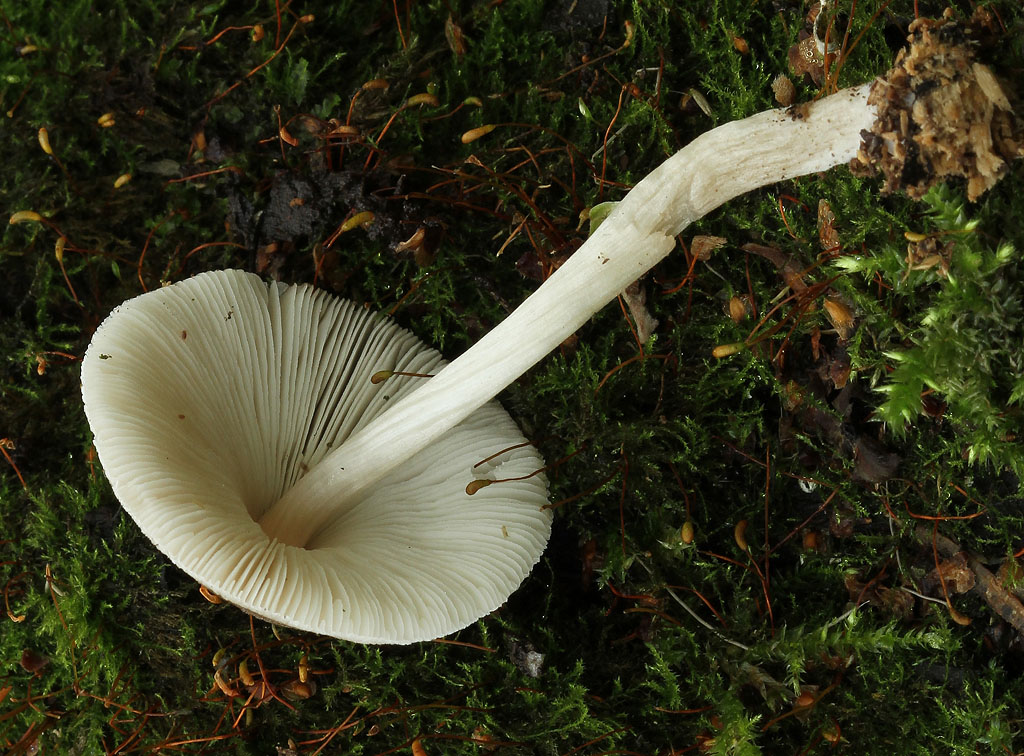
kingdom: Fungi
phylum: Basidiomycota
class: Agaricomycetes
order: Agaricales
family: Pluteaceae
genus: Pluteus
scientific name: Pluteus longistriatus
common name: hjul-skærmhat
